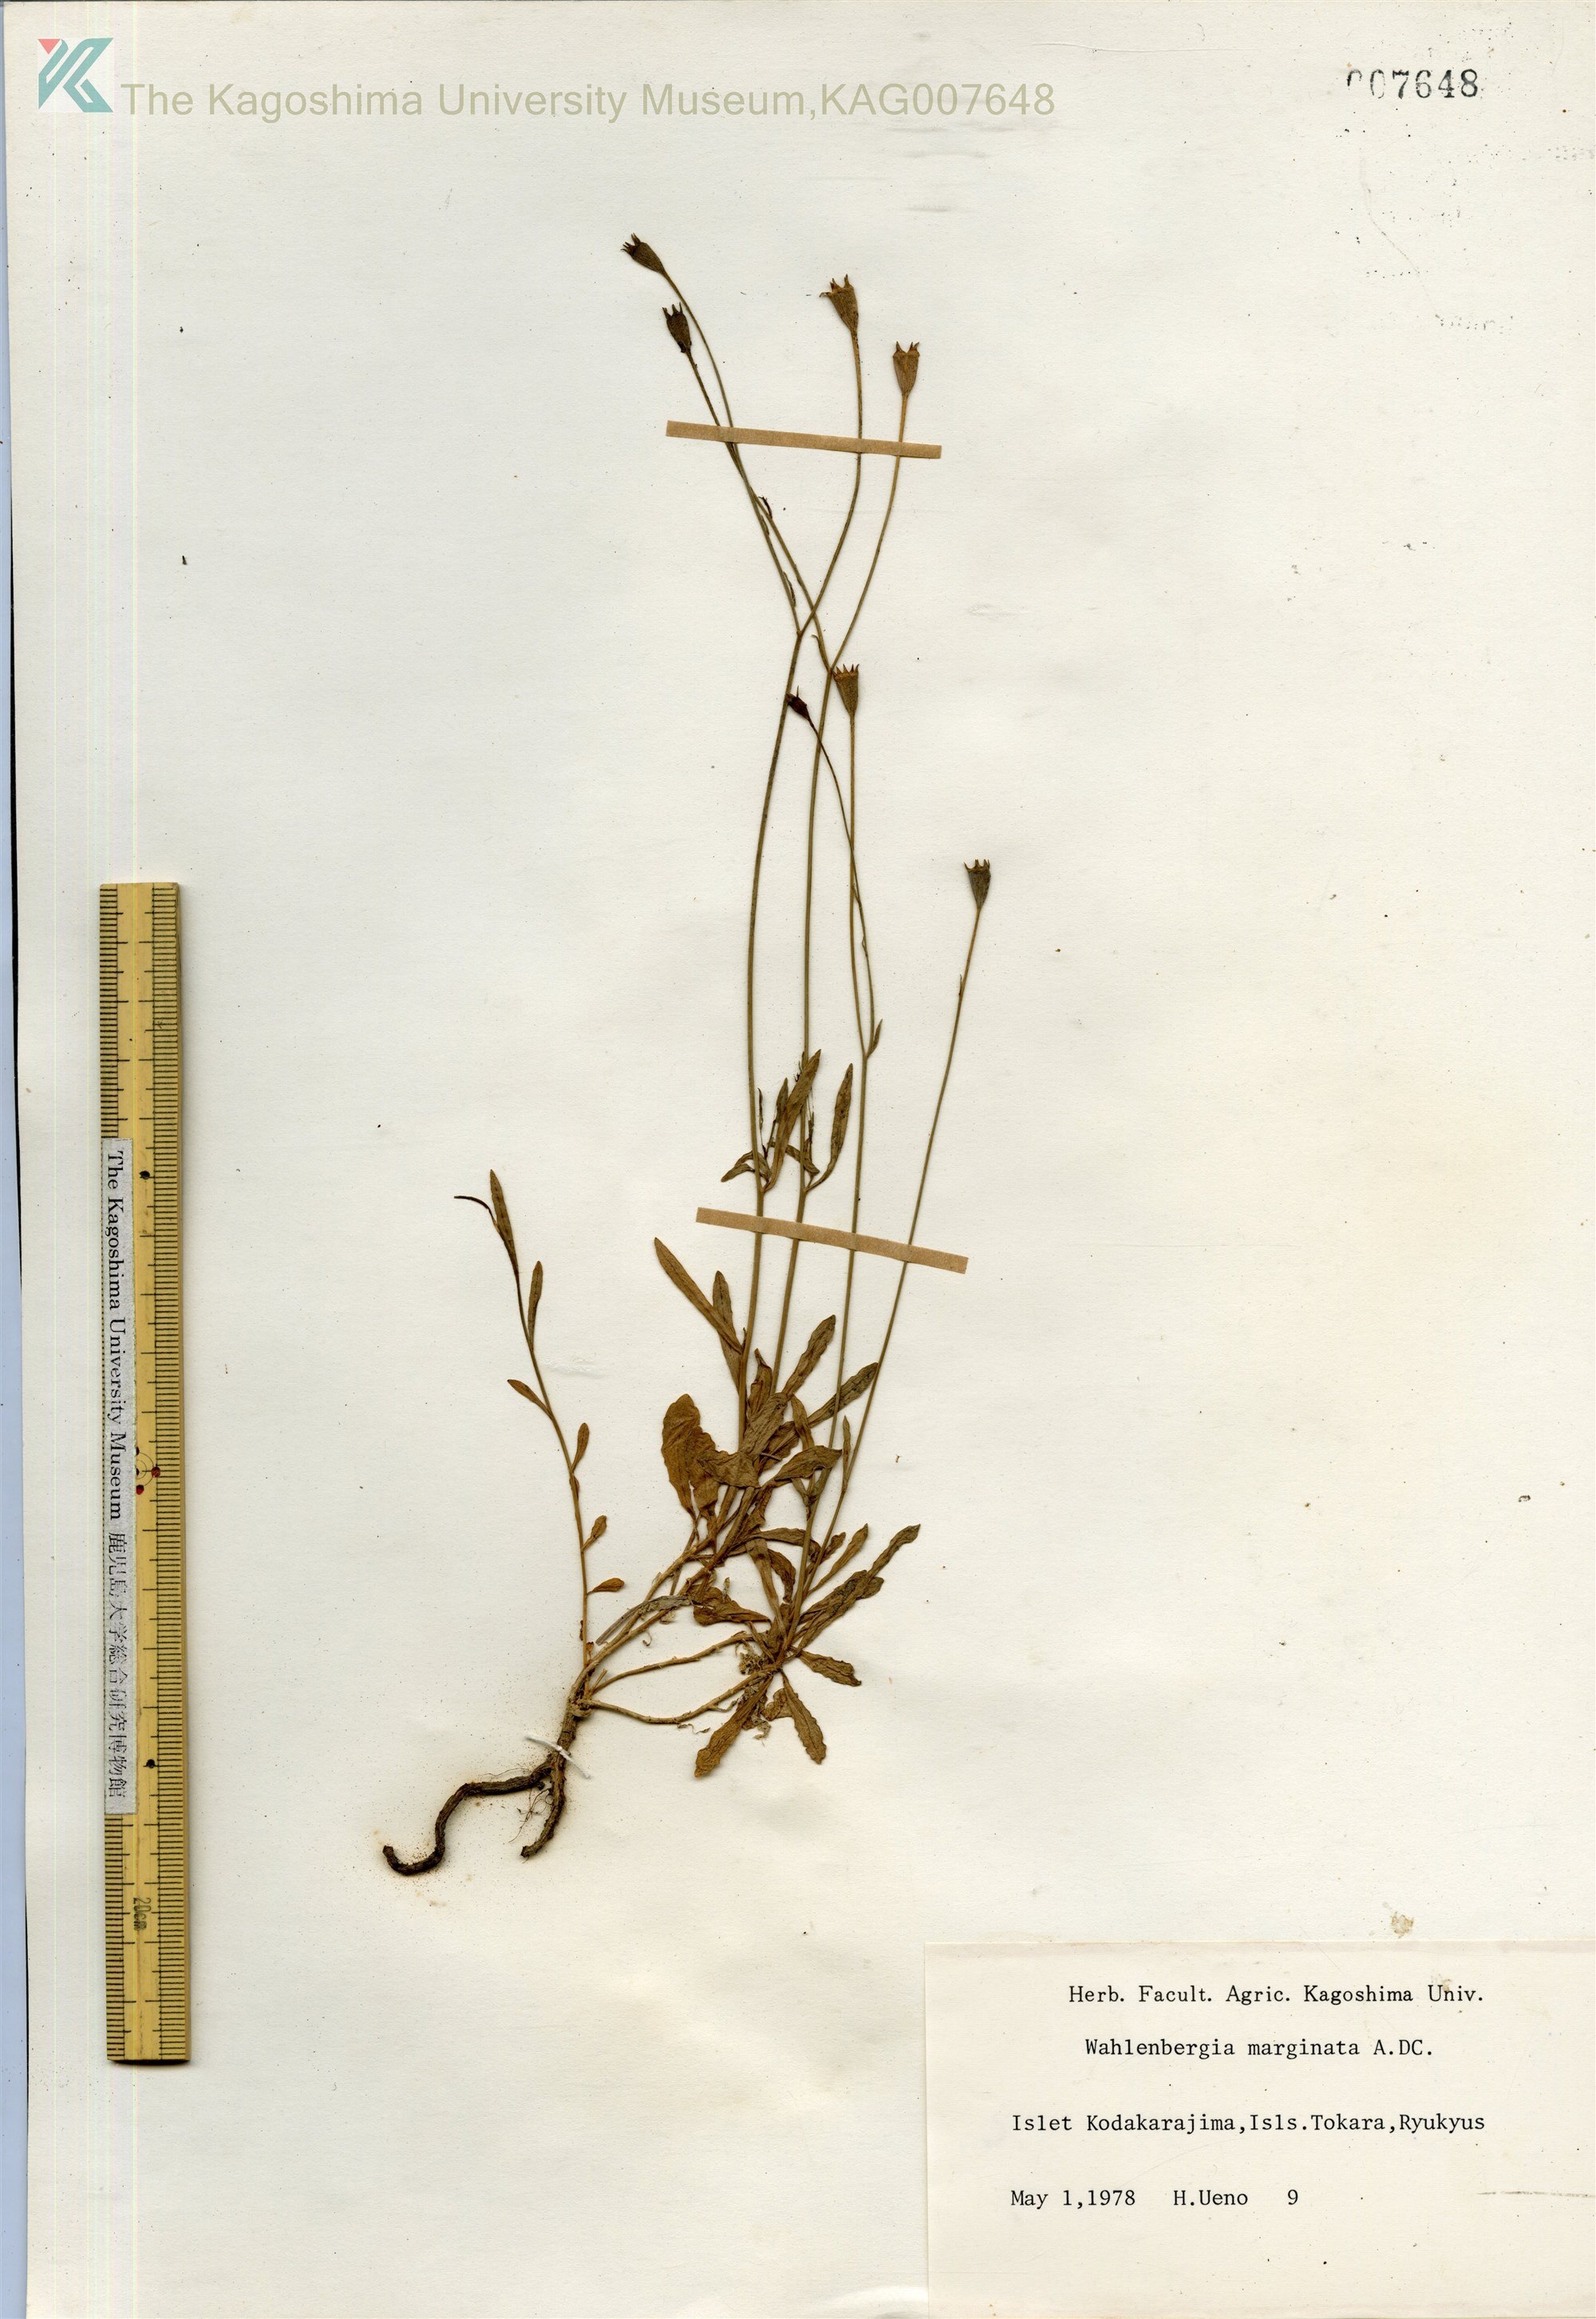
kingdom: Plantae
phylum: Tracheophyta
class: Magnoliopsida
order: Asterales
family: Campanulaceae
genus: Wahlenbergia
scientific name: Wahlenbergia marginata
